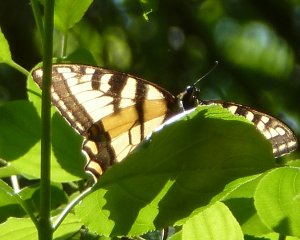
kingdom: Animalia
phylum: Arthropoda
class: Insecta
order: Lepidoptera
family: Papilionidae
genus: Pterourus
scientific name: Pterourus canadensis
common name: Canadian Tiger Swallowtail
